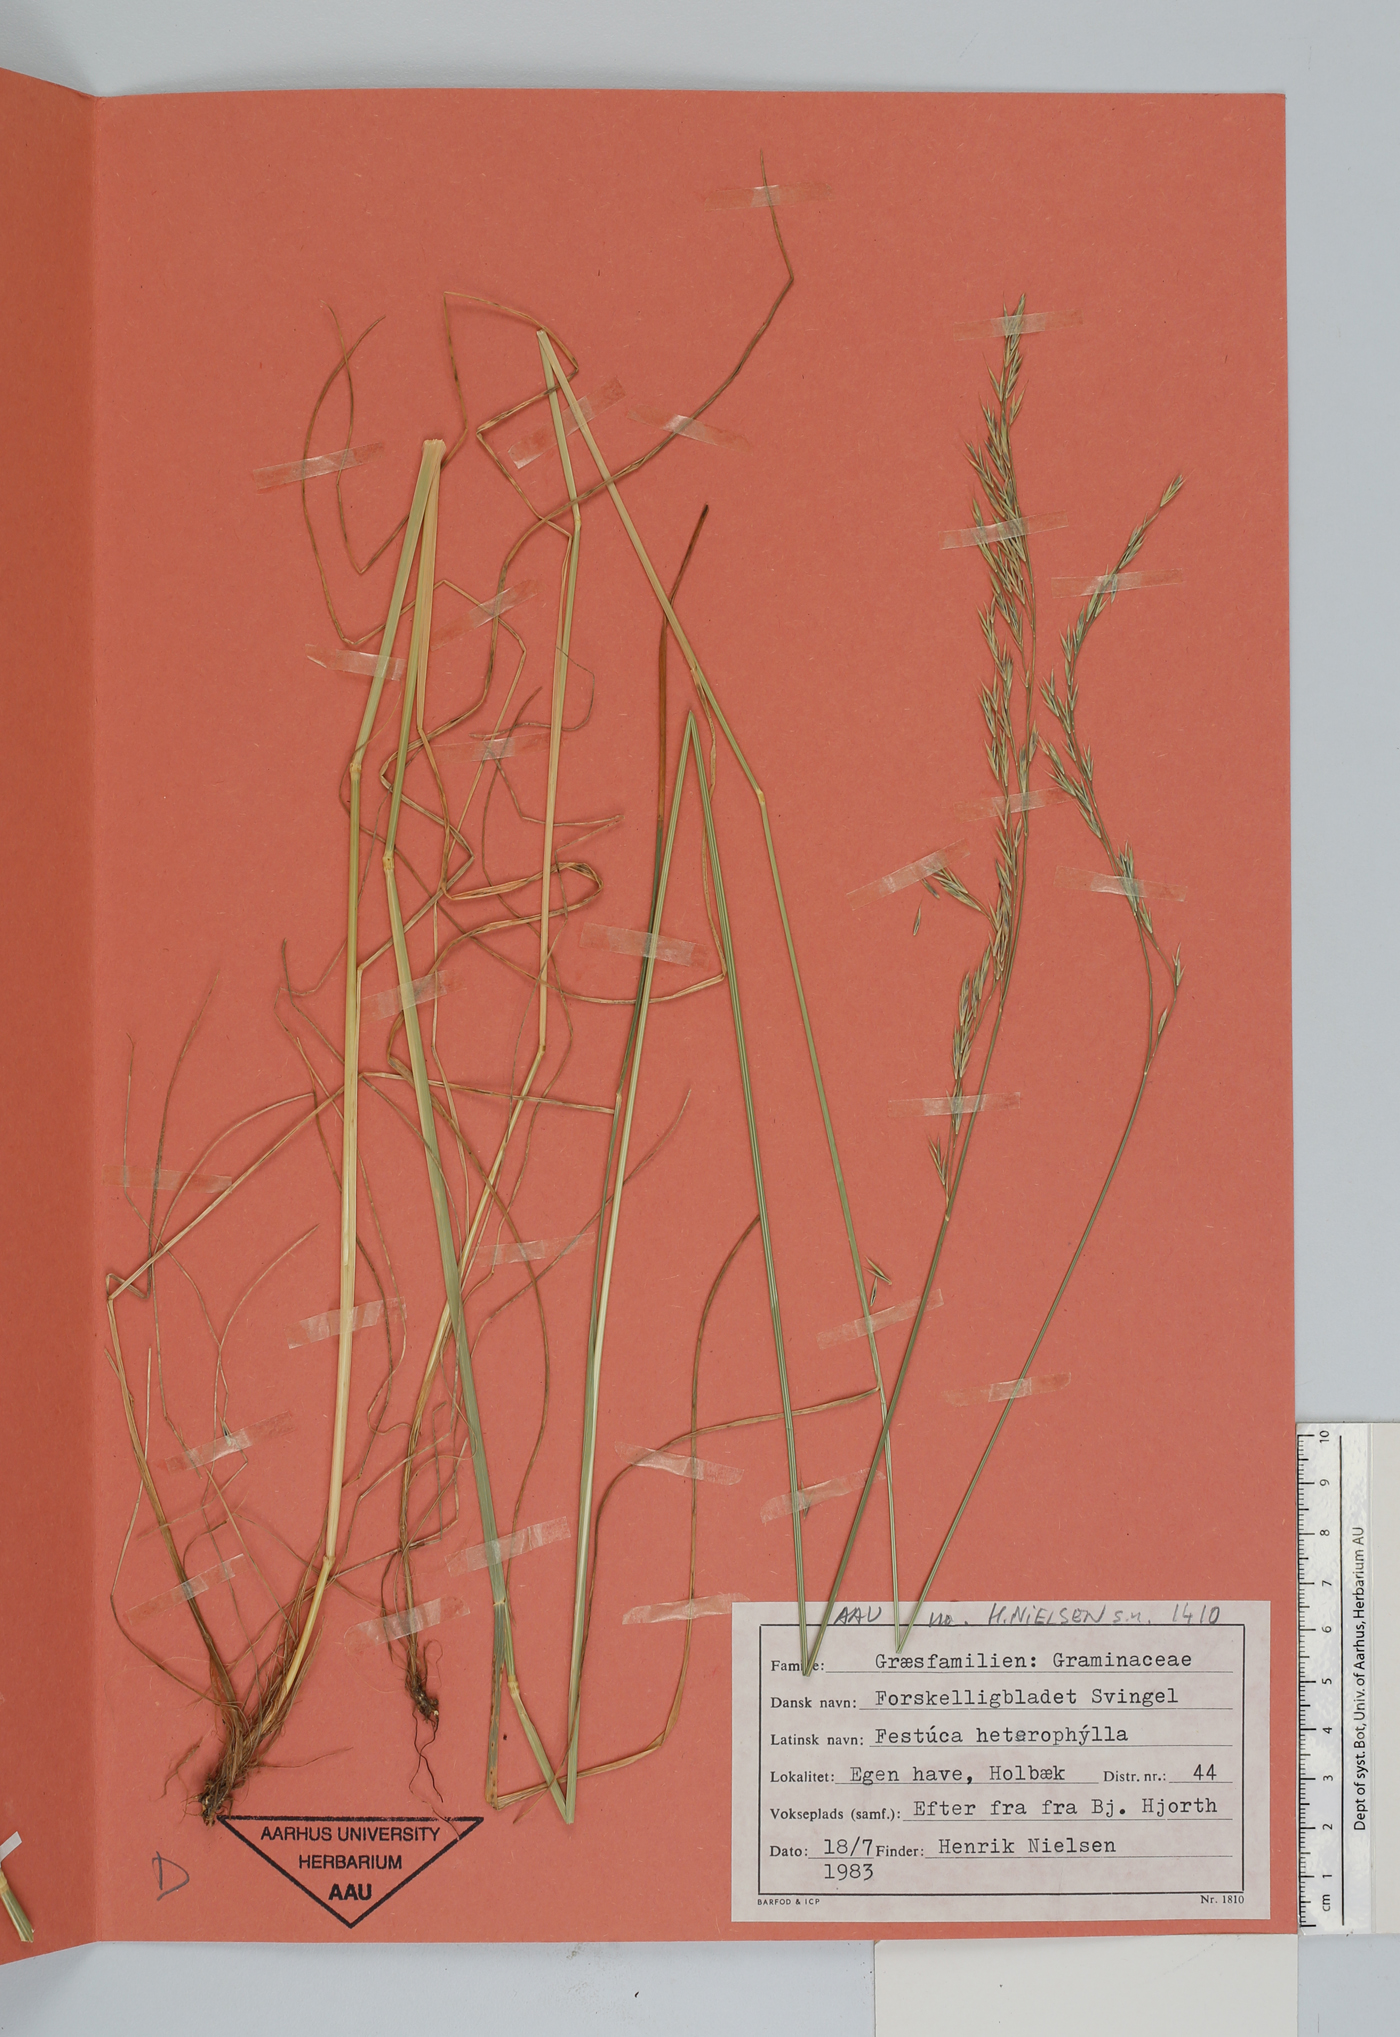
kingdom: Plantae
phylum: Tracheophyta
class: Liliopsida
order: Poales
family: Poaceae
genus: Festuca
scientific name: Festuca heterophylla
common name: Various-leaved fescue
